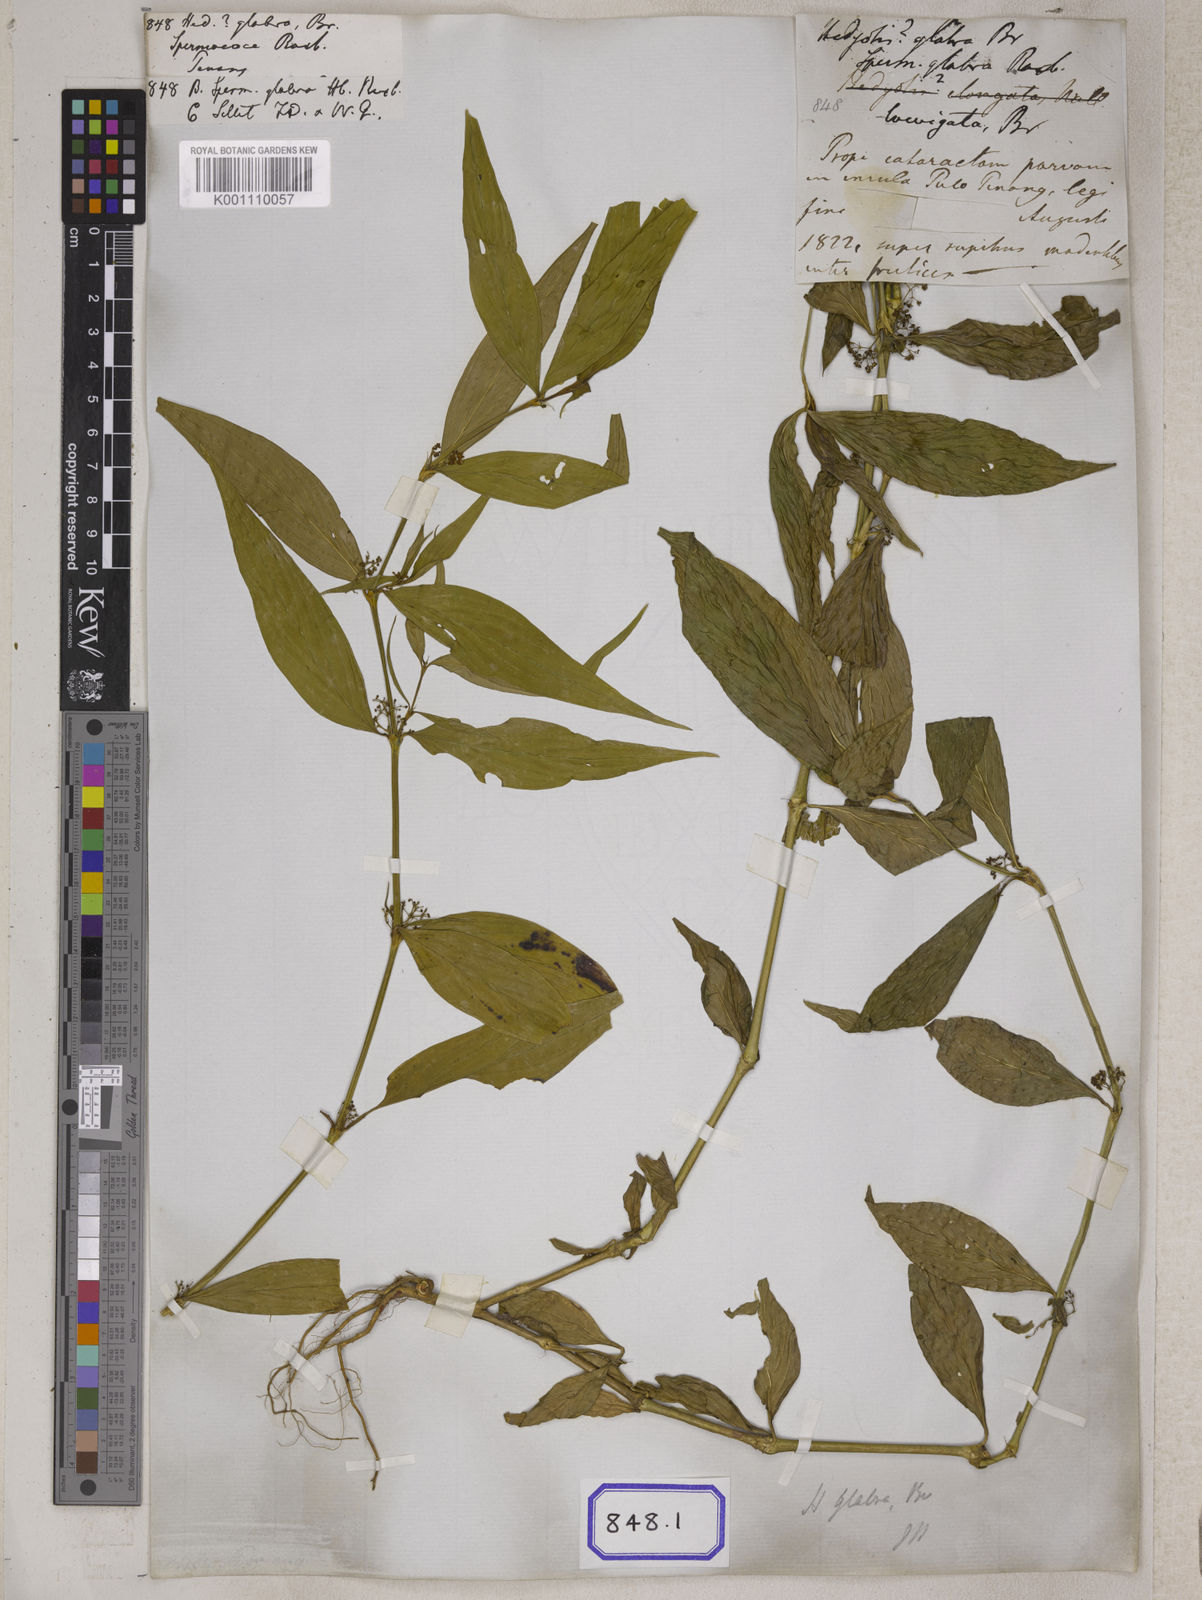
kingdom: Plantae
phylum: Tracheophyta
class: Magnoliopsida
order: Gentianales
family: Rubiaceae
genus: Hedyotis
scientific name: Hedyotis
